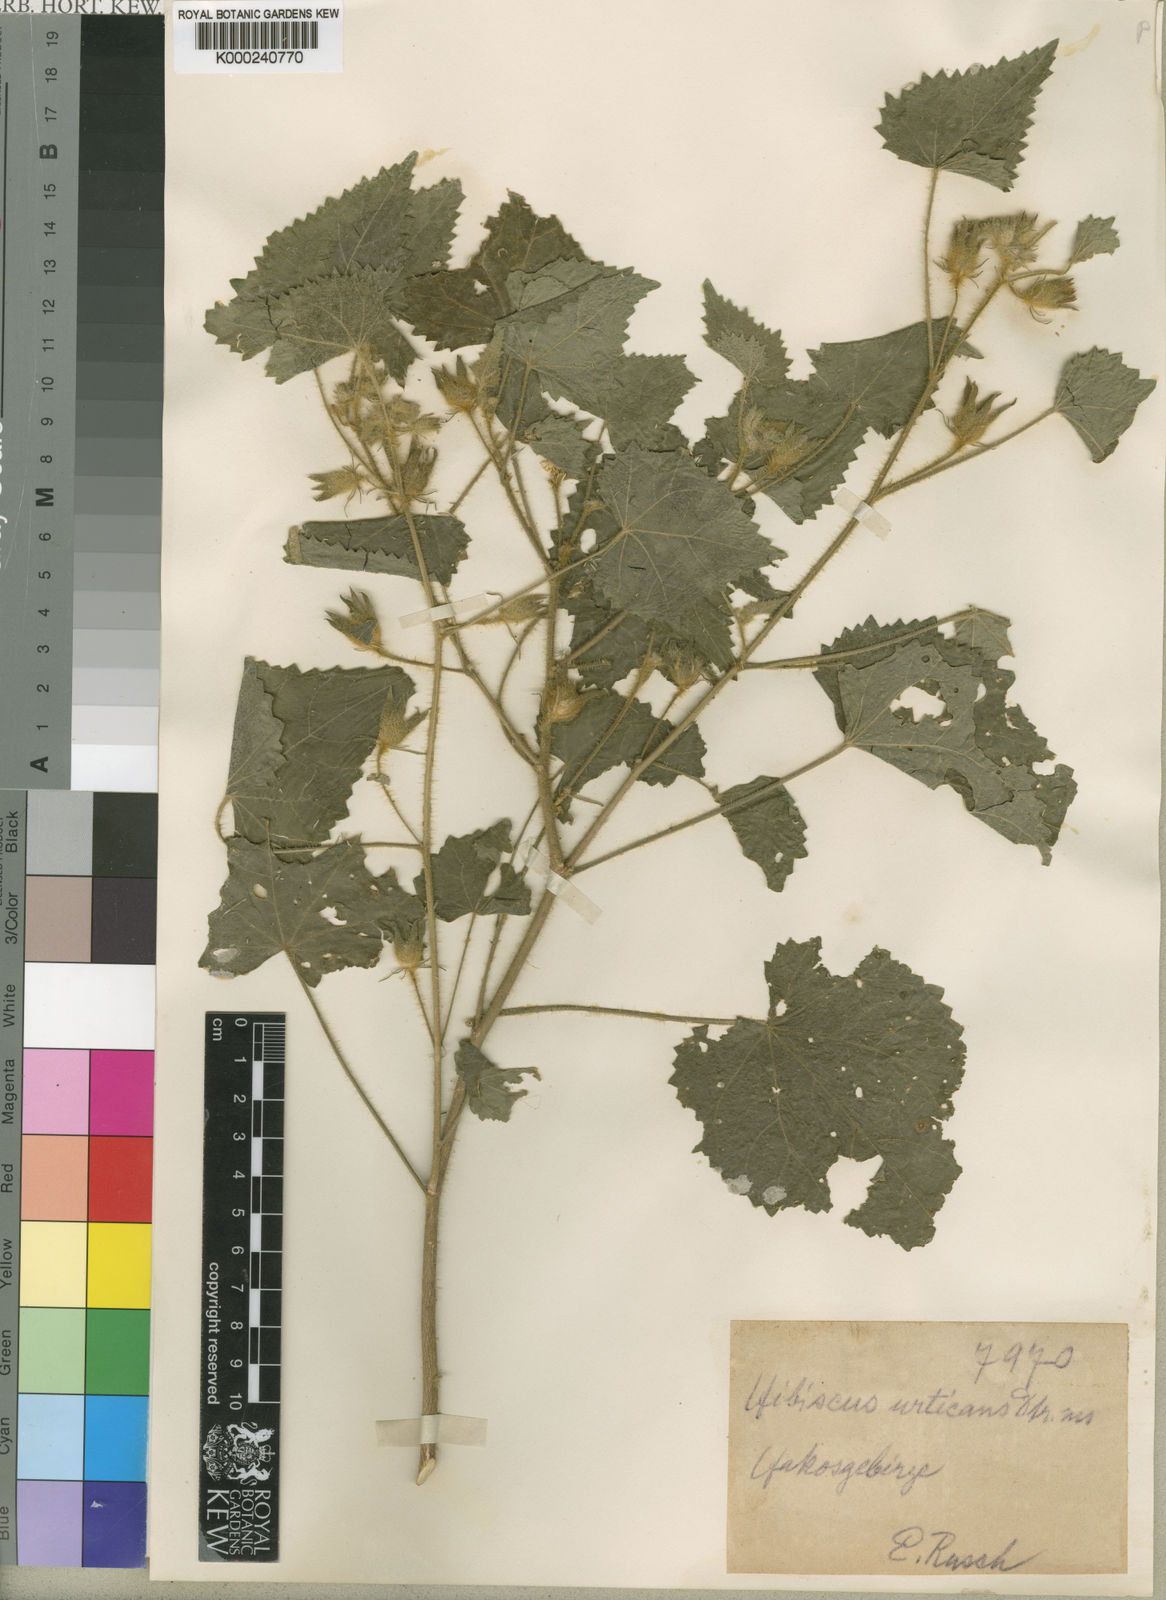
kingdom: Plantae
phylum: Tracheophyta
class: Magnoliopsida
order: Malvales
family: Malvaceae
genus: Hibiscus
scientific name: Hibiscus
